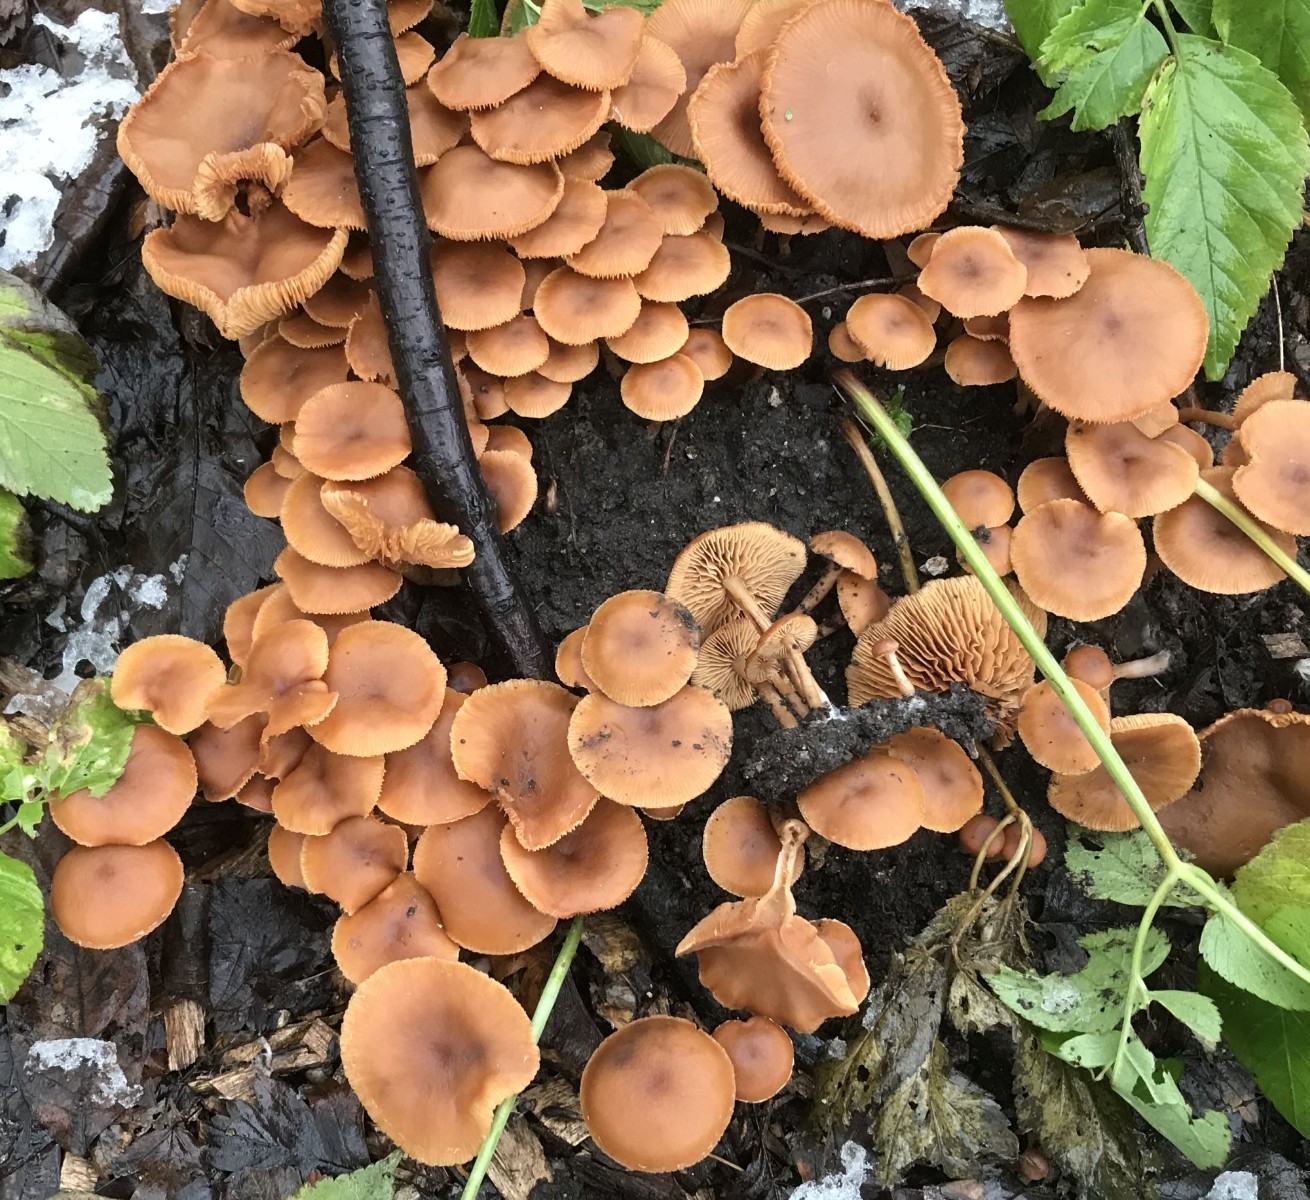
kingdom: Fungi
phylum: Basidiomycota
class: Agaricomycetes
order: Agaricales
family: Tubariaceae
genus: Tubaria
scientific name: Tubaria furfuracea
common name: kliddet fnughat
